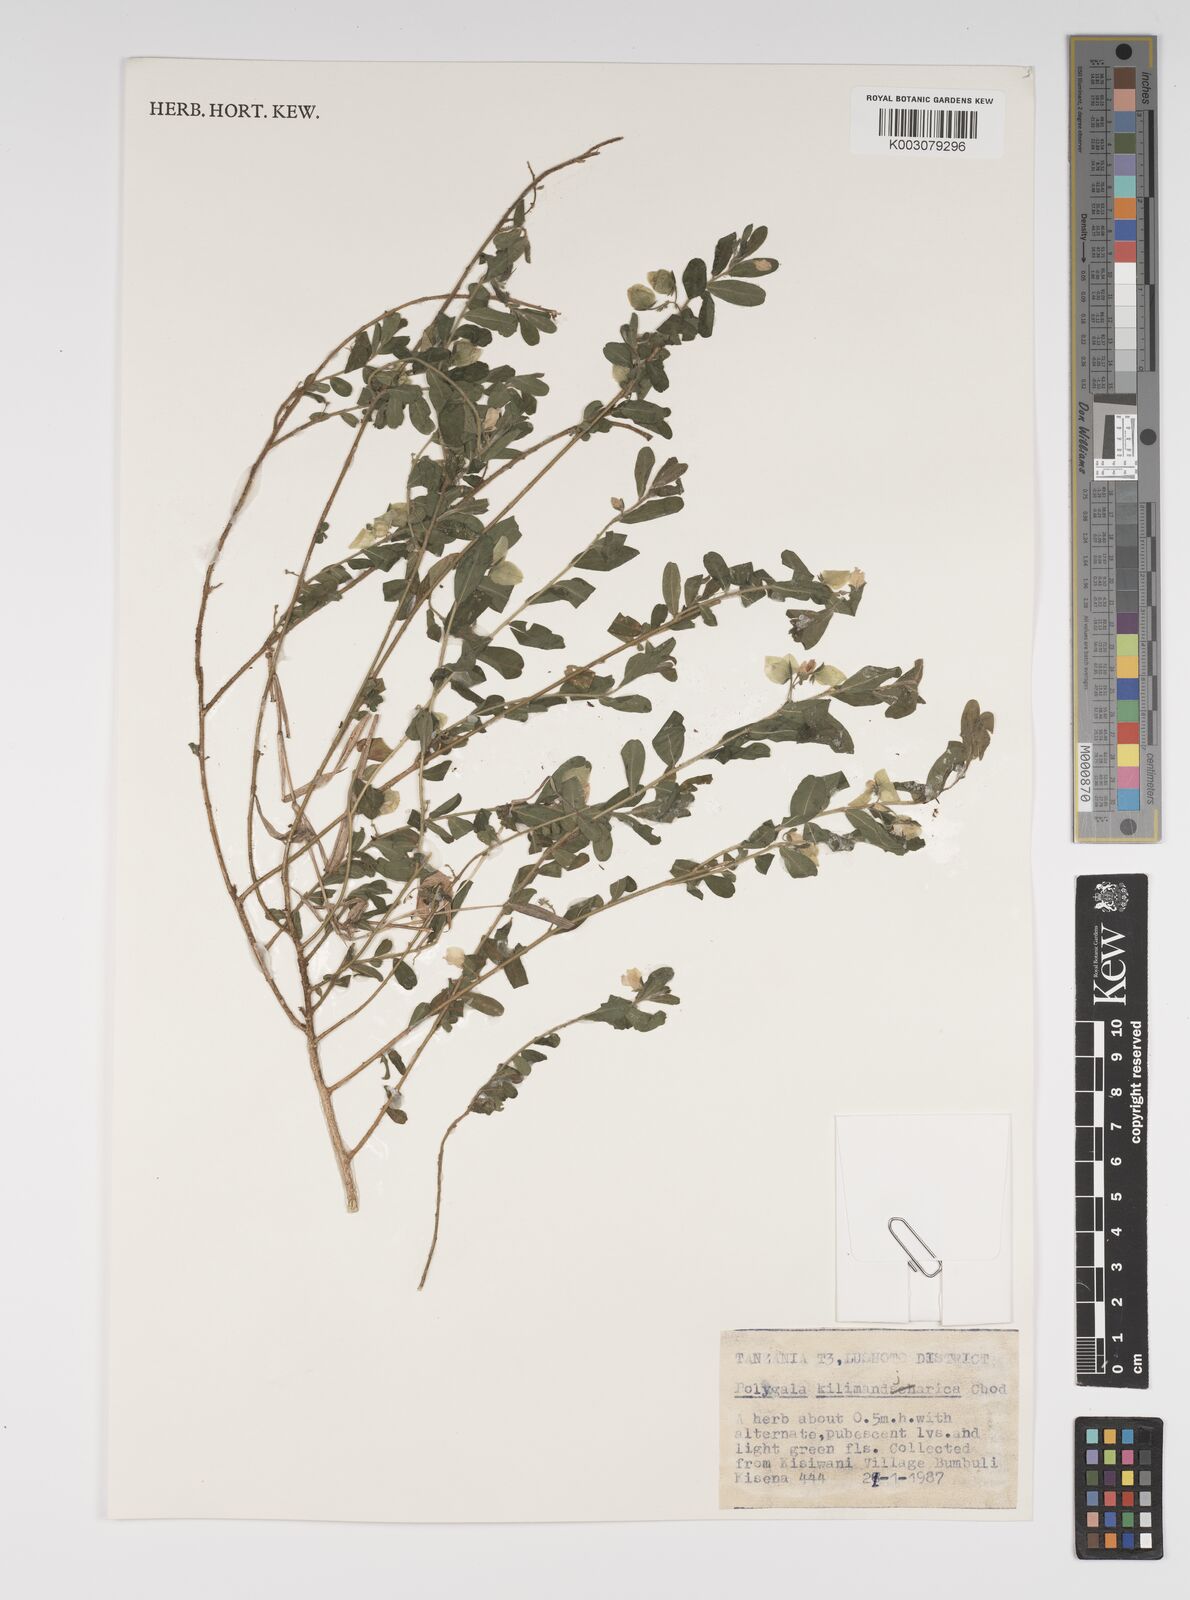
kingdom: Plantae
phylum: Tracheophyta
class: Magnoliopsida
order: Fabales
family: Polygalaceae
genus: Polygala
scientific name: Polygala kilimandjarica
